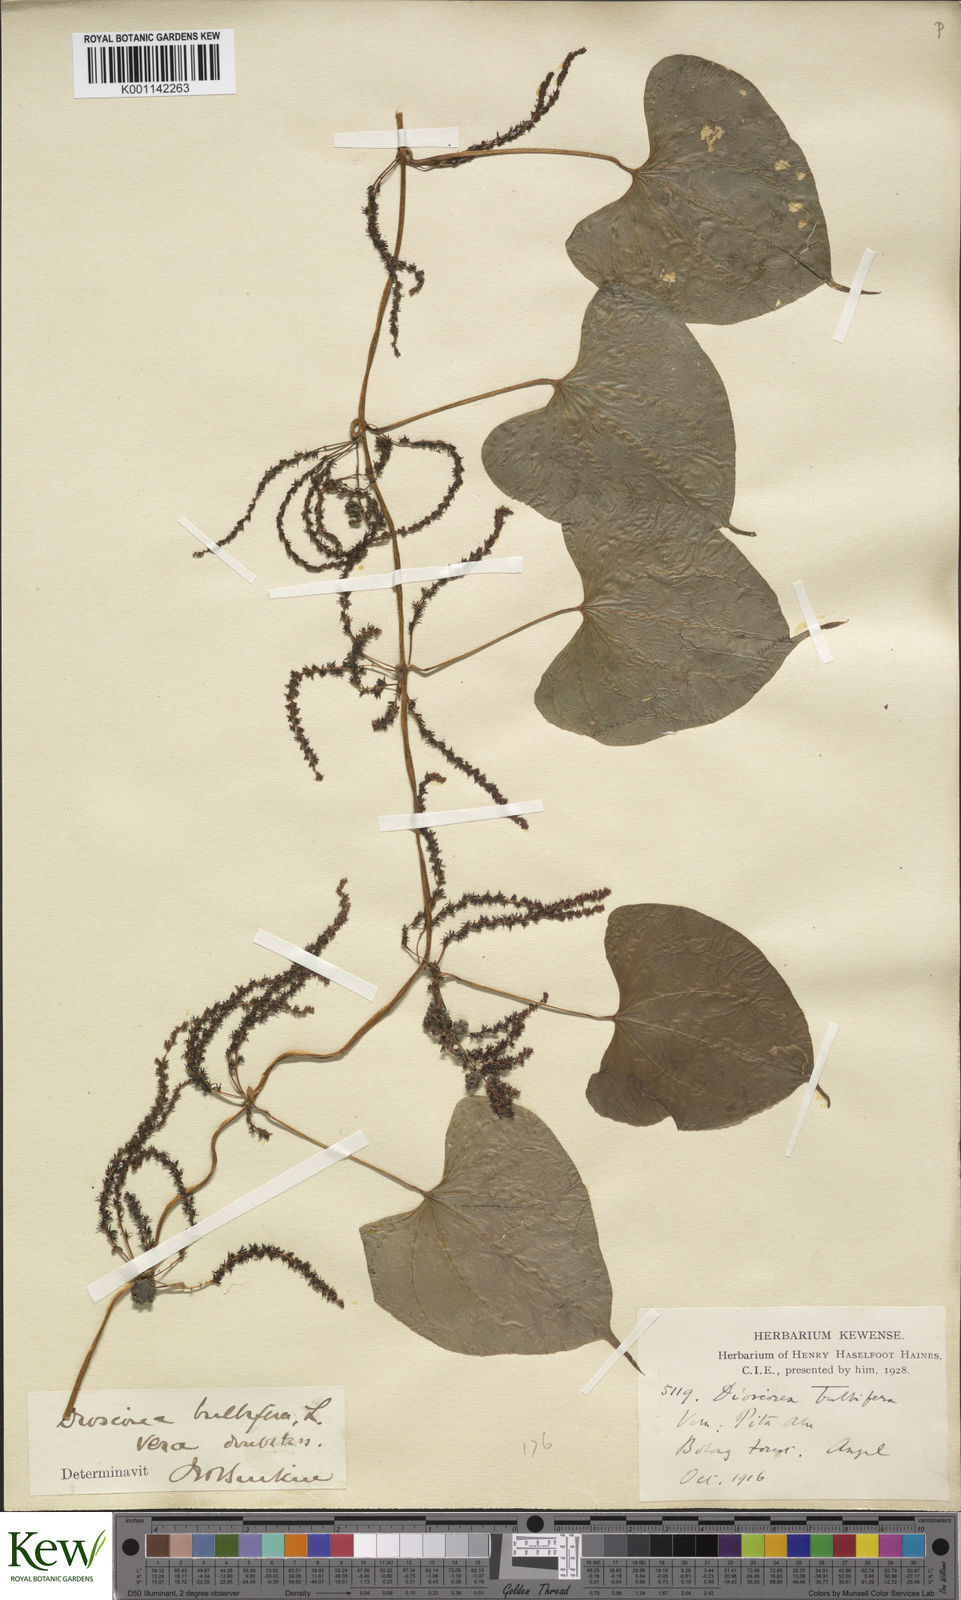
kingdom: Plantae
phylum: Tracheophyta
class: Liliopsida
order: Dioscoreales
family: Dioscoreaceae
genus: Dioscorea
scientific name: Dioscorea bulbifera
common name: Air yam
